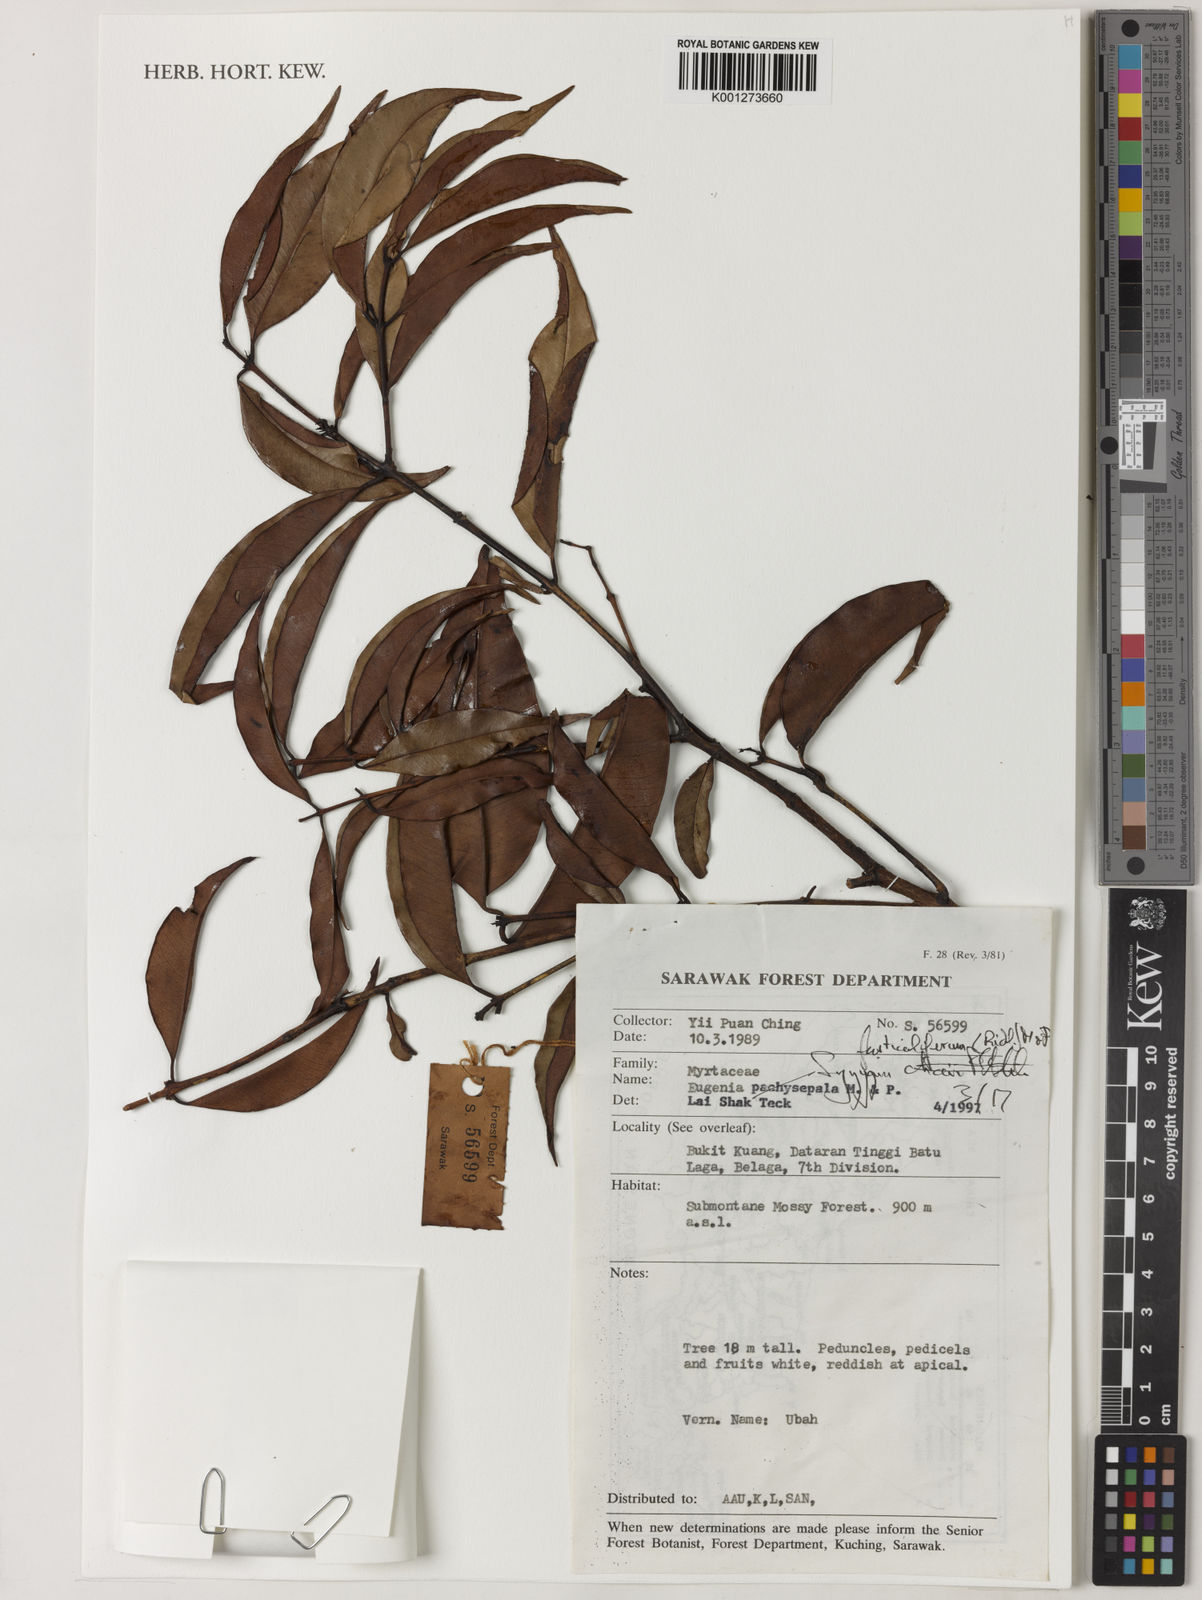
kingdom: Plantae
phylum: Tracheophyta
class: Magnoliopsida
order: Myrtales
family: Myrtaceae
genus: Syzygium
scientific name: Syzygium fusticuliferum
